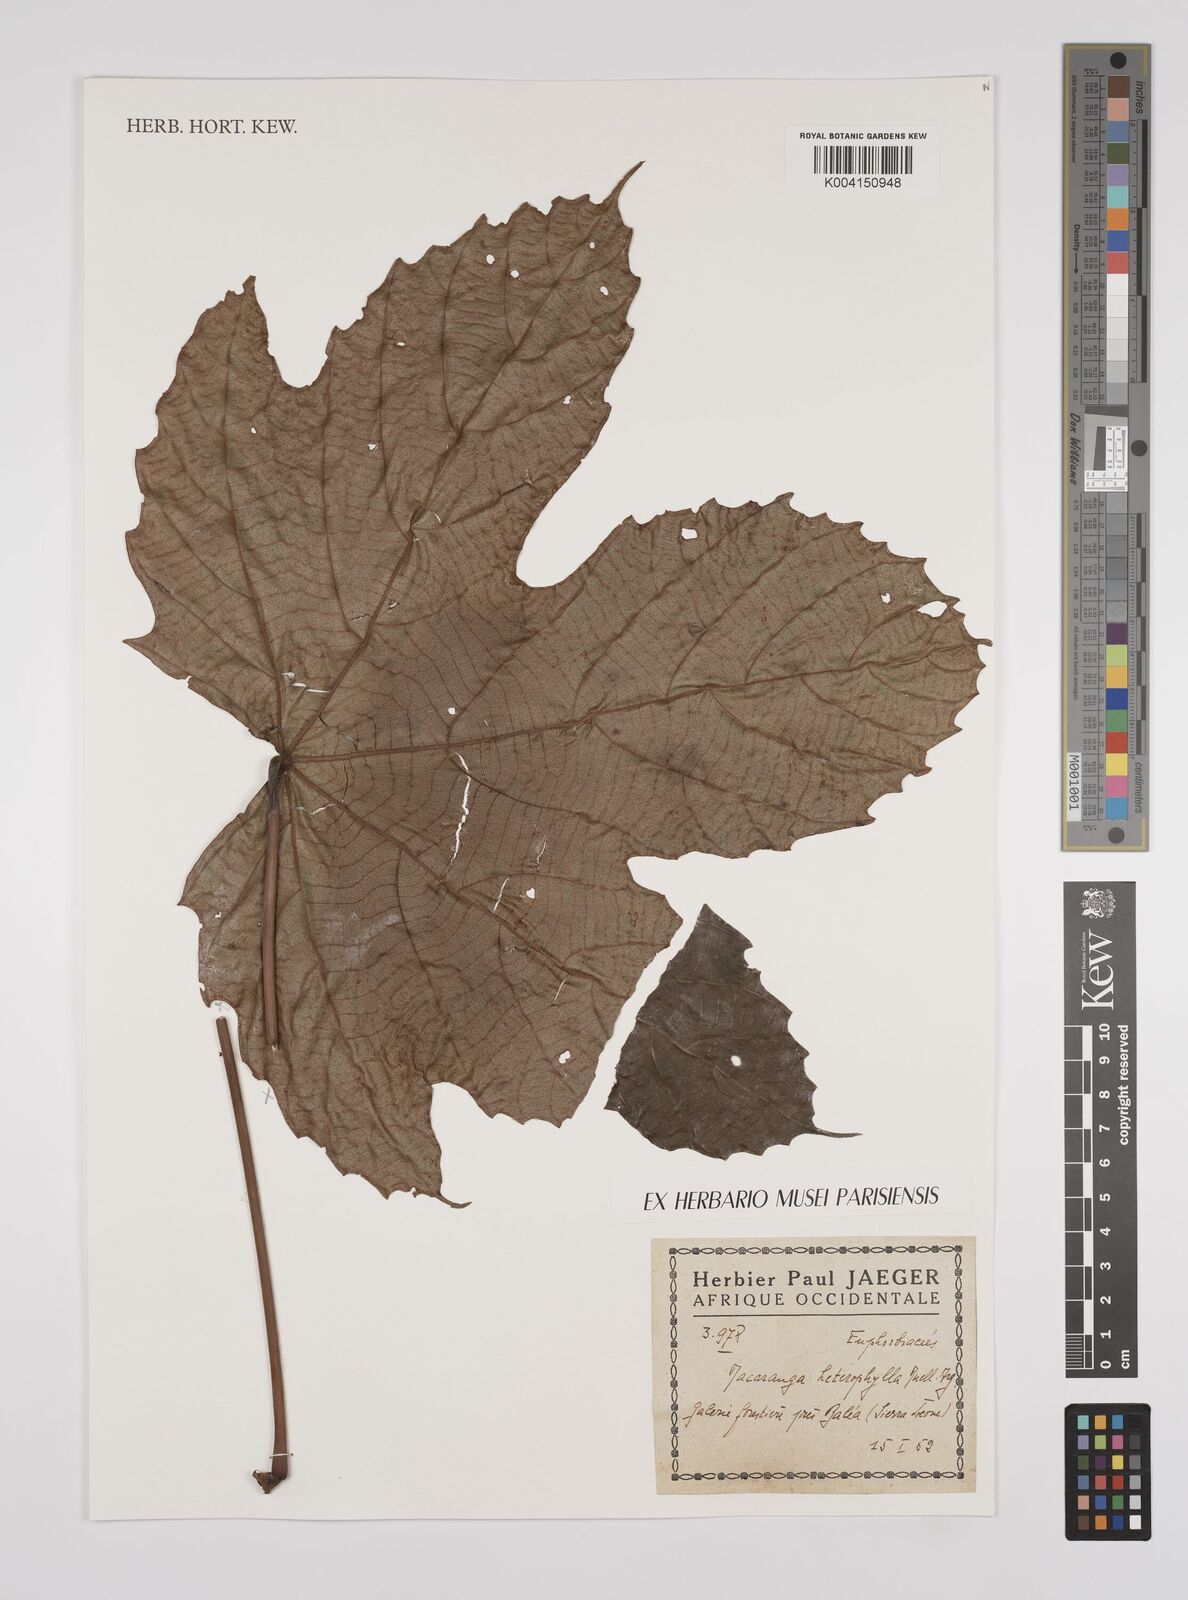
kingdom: Plantae
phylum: Tracheophyta
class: Magnoliopsida
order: Malpighiales
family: Euphorbiaceae
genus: Macaranga
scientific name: Macaranga heterophylla
